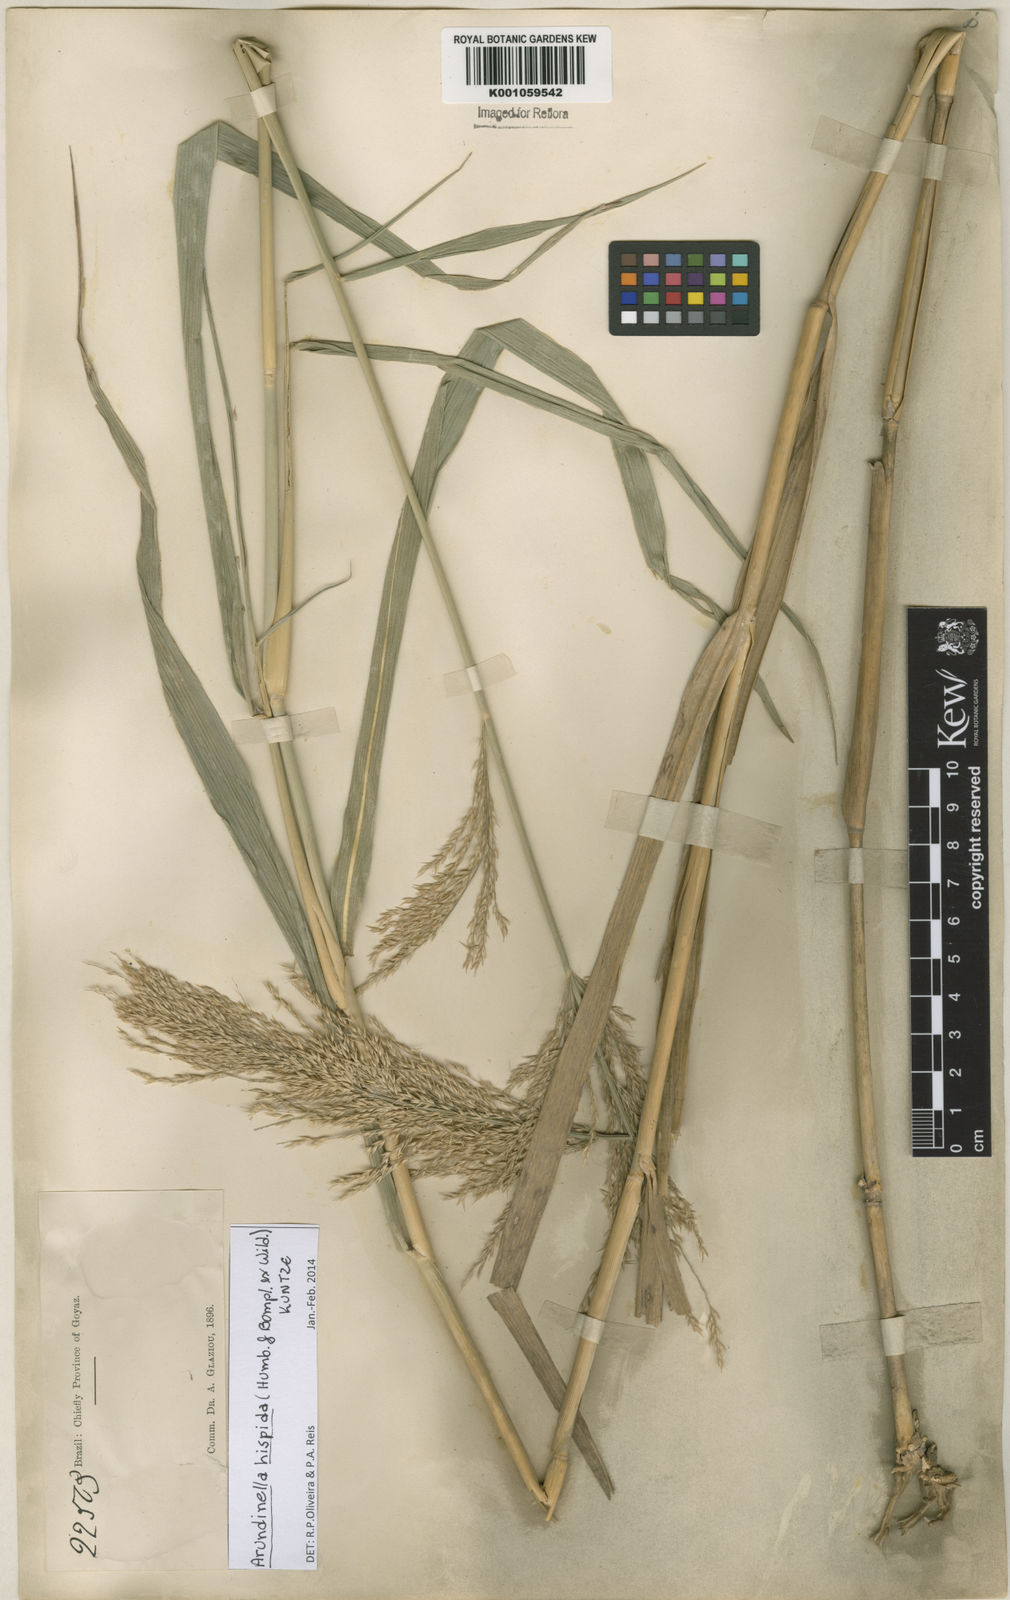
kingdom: Plantae
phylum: Tracheophyta
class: Liliopsida
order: Poales
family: Poaceae
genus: Arundinella
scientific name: Arundinella hispida
